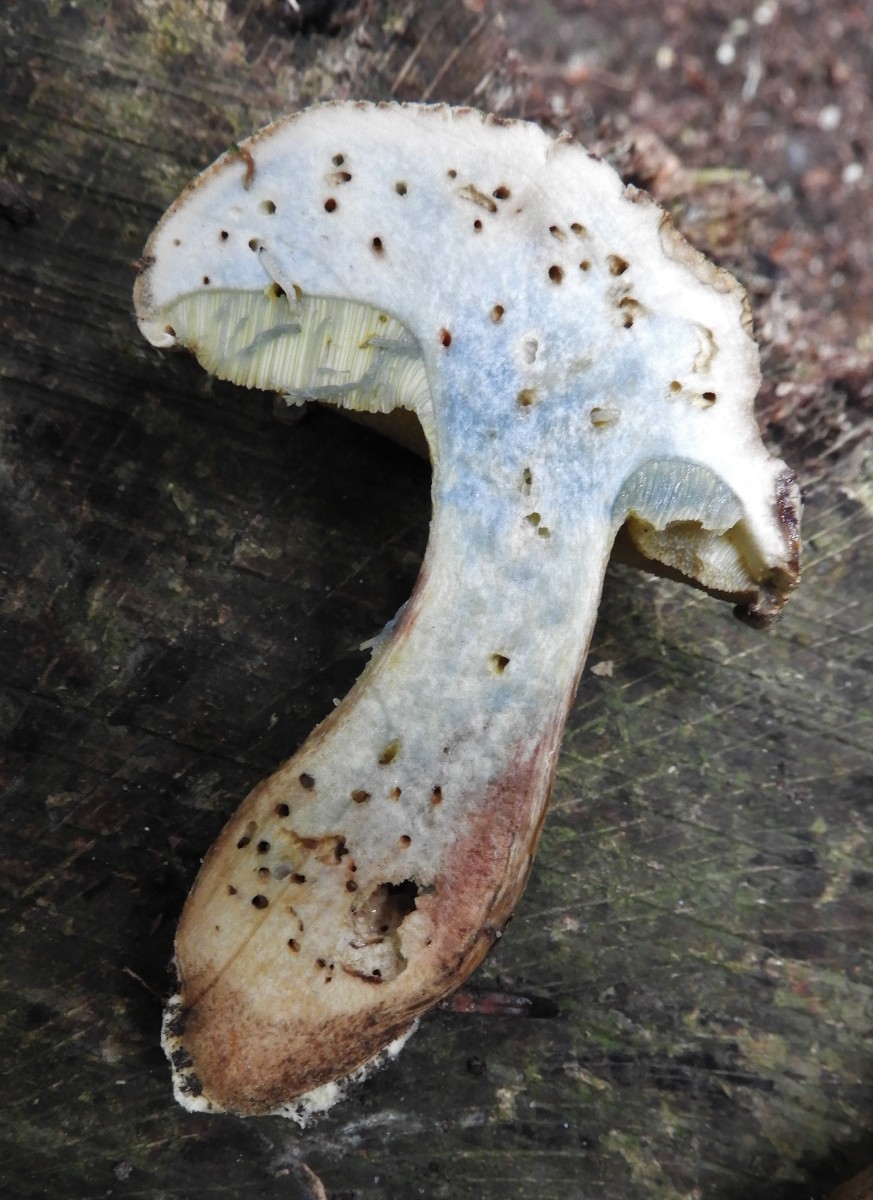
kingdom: Fungi
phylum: Basidiomycota
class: Agaricomycetes
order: Boletales
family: Boletaceae
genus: Caloboletus
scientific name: Caloboletus radicans
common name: rod-rørhat
